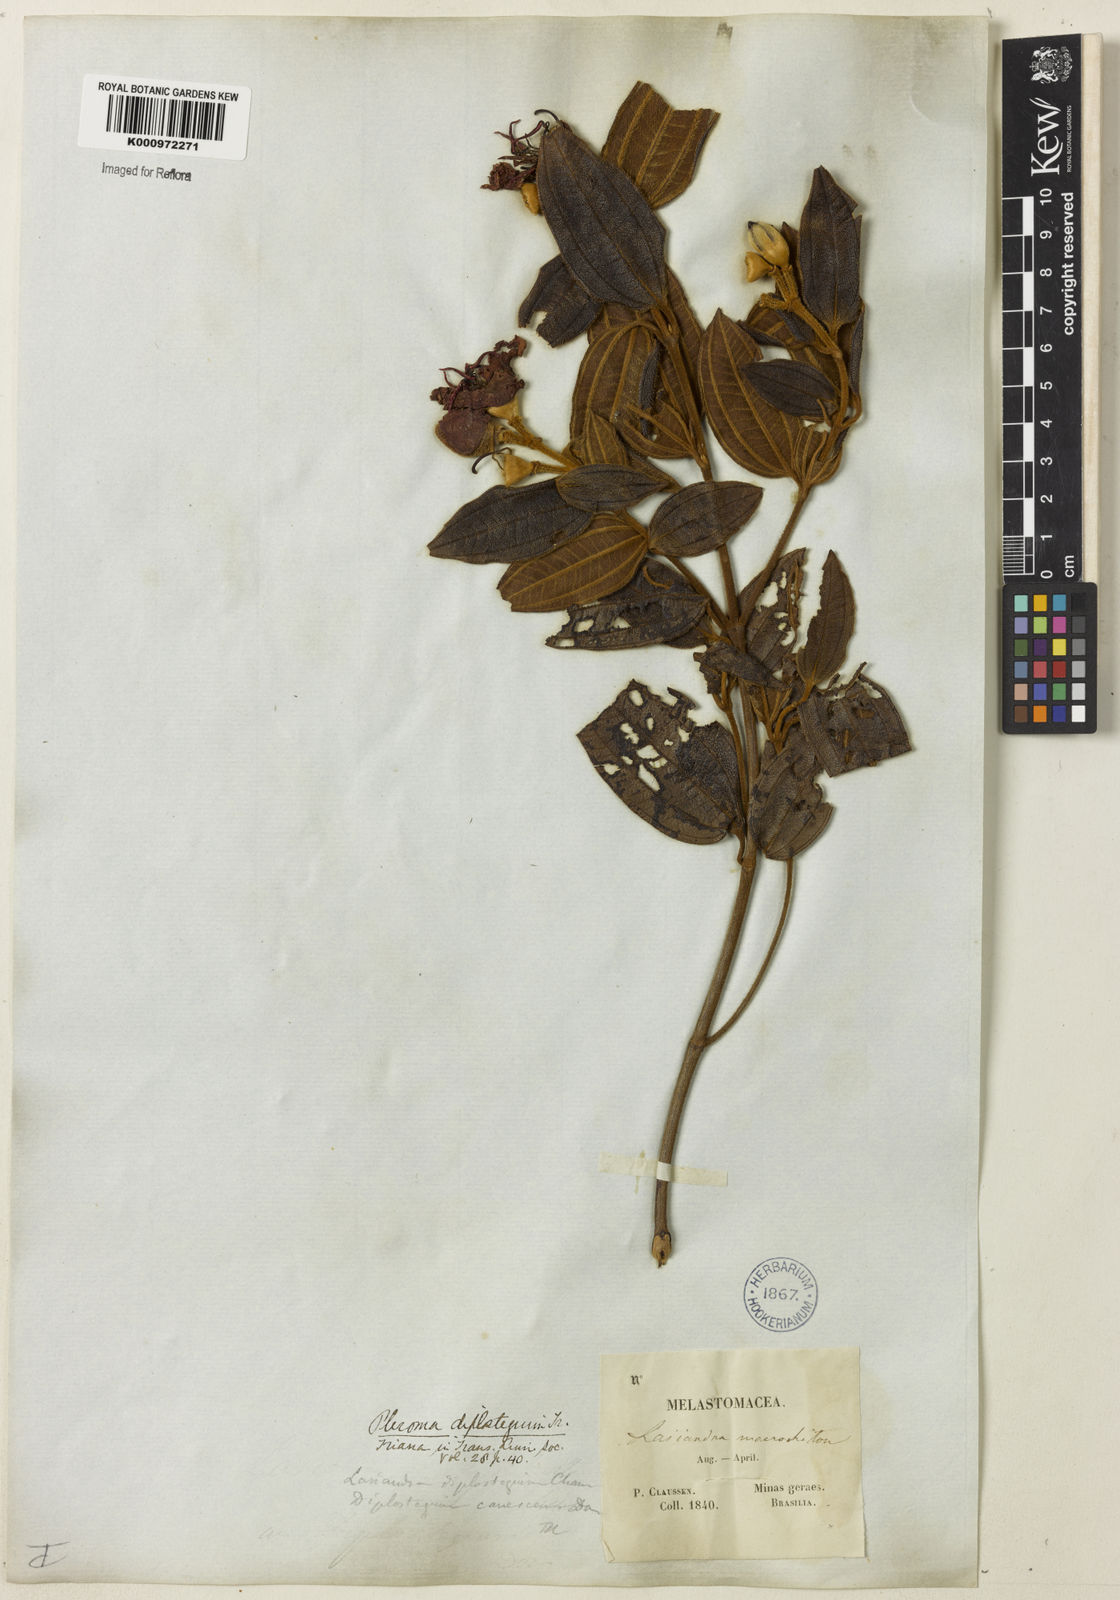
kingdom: Plantae
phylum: Tracheophyta
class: Magnoliopsida
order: Myrtales
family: Melastomataceae
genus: Pleroma
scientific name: Pleroma canescens
